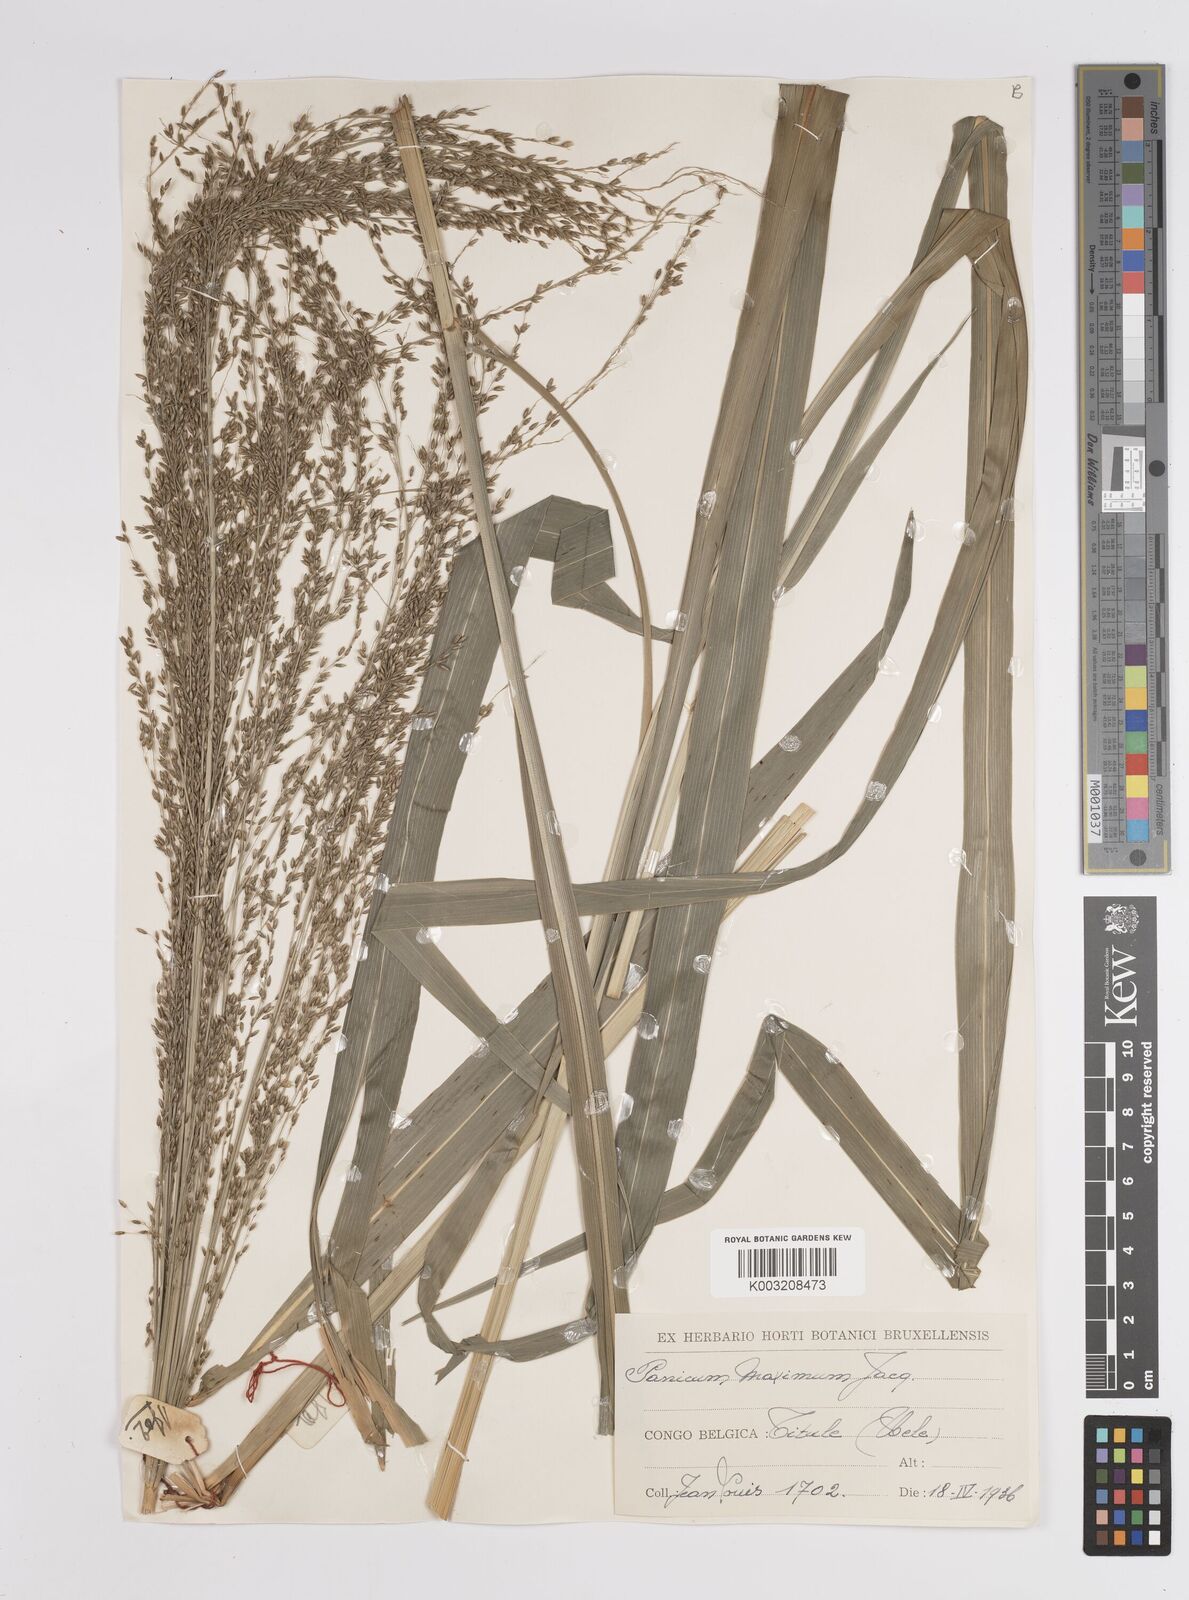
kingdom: Plantae
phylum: Tracheophyta
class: Liliopsida
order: Poales
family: Poaceae
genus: Megathyrsus
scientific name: Megathyrsus maximus
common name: Guineagrass
